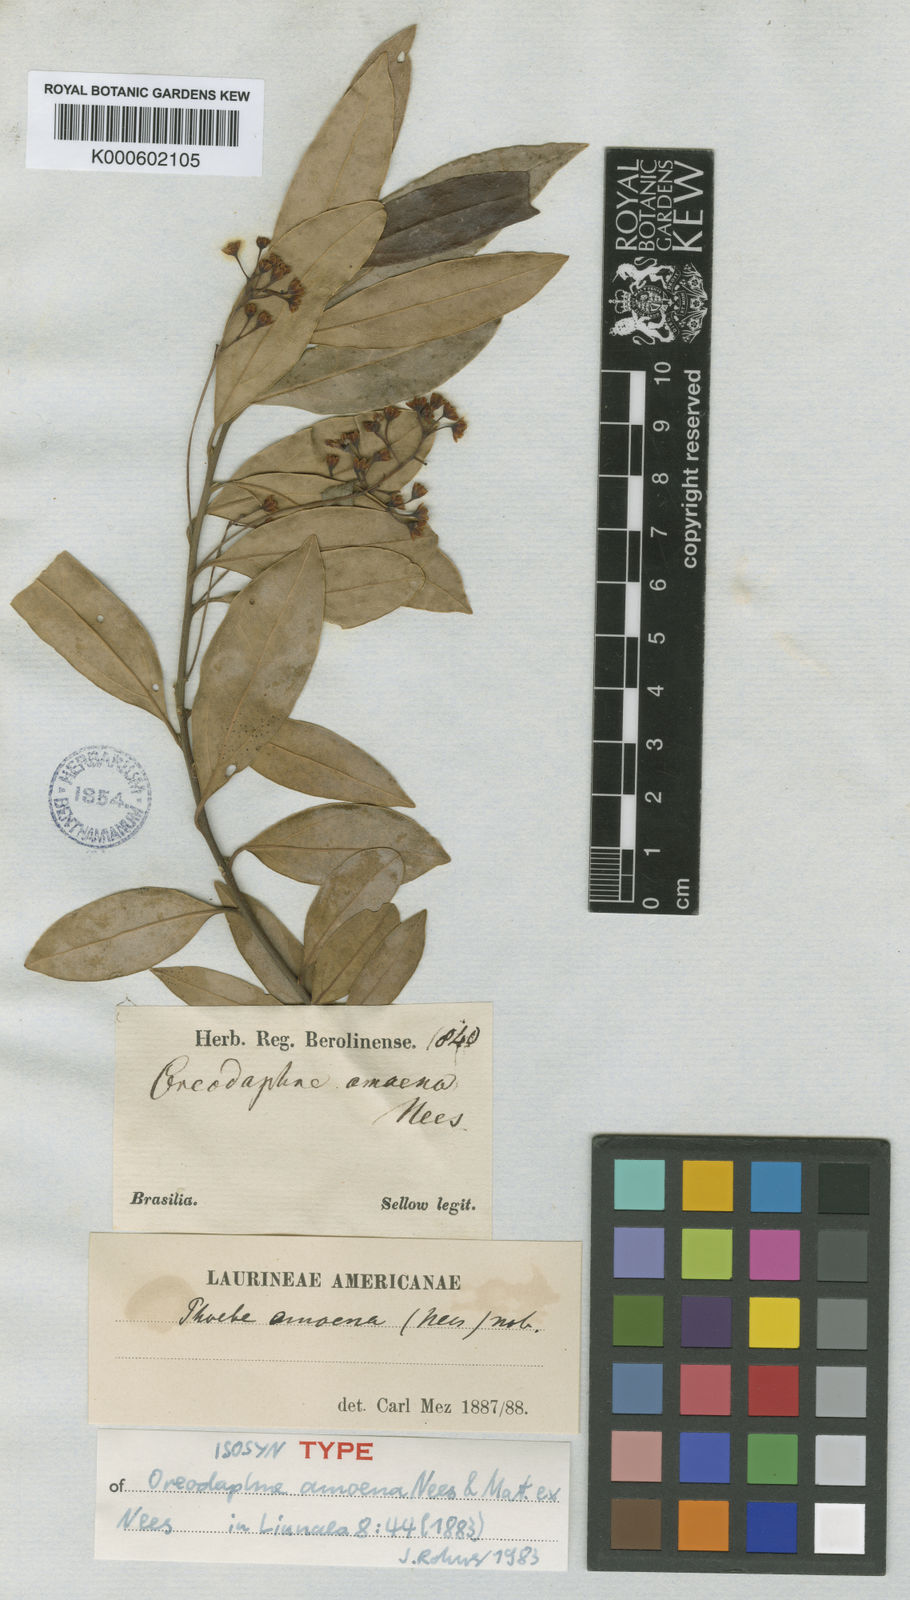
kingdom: Plantae
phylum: Tracheophyta
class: Magnoliopsida
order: Laurales
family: Lauraceae
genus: Aiouea
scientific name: Aiouea amoena
